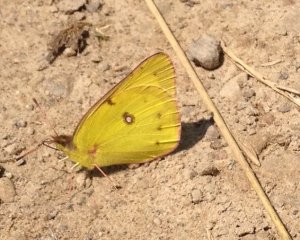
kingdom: Animalia
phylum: Arthropoda
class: Insecta
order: Lepidoptera
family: Lycaenidae
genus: Cyaniris
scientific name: Cyaniris neglecta
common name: Summer Azure
